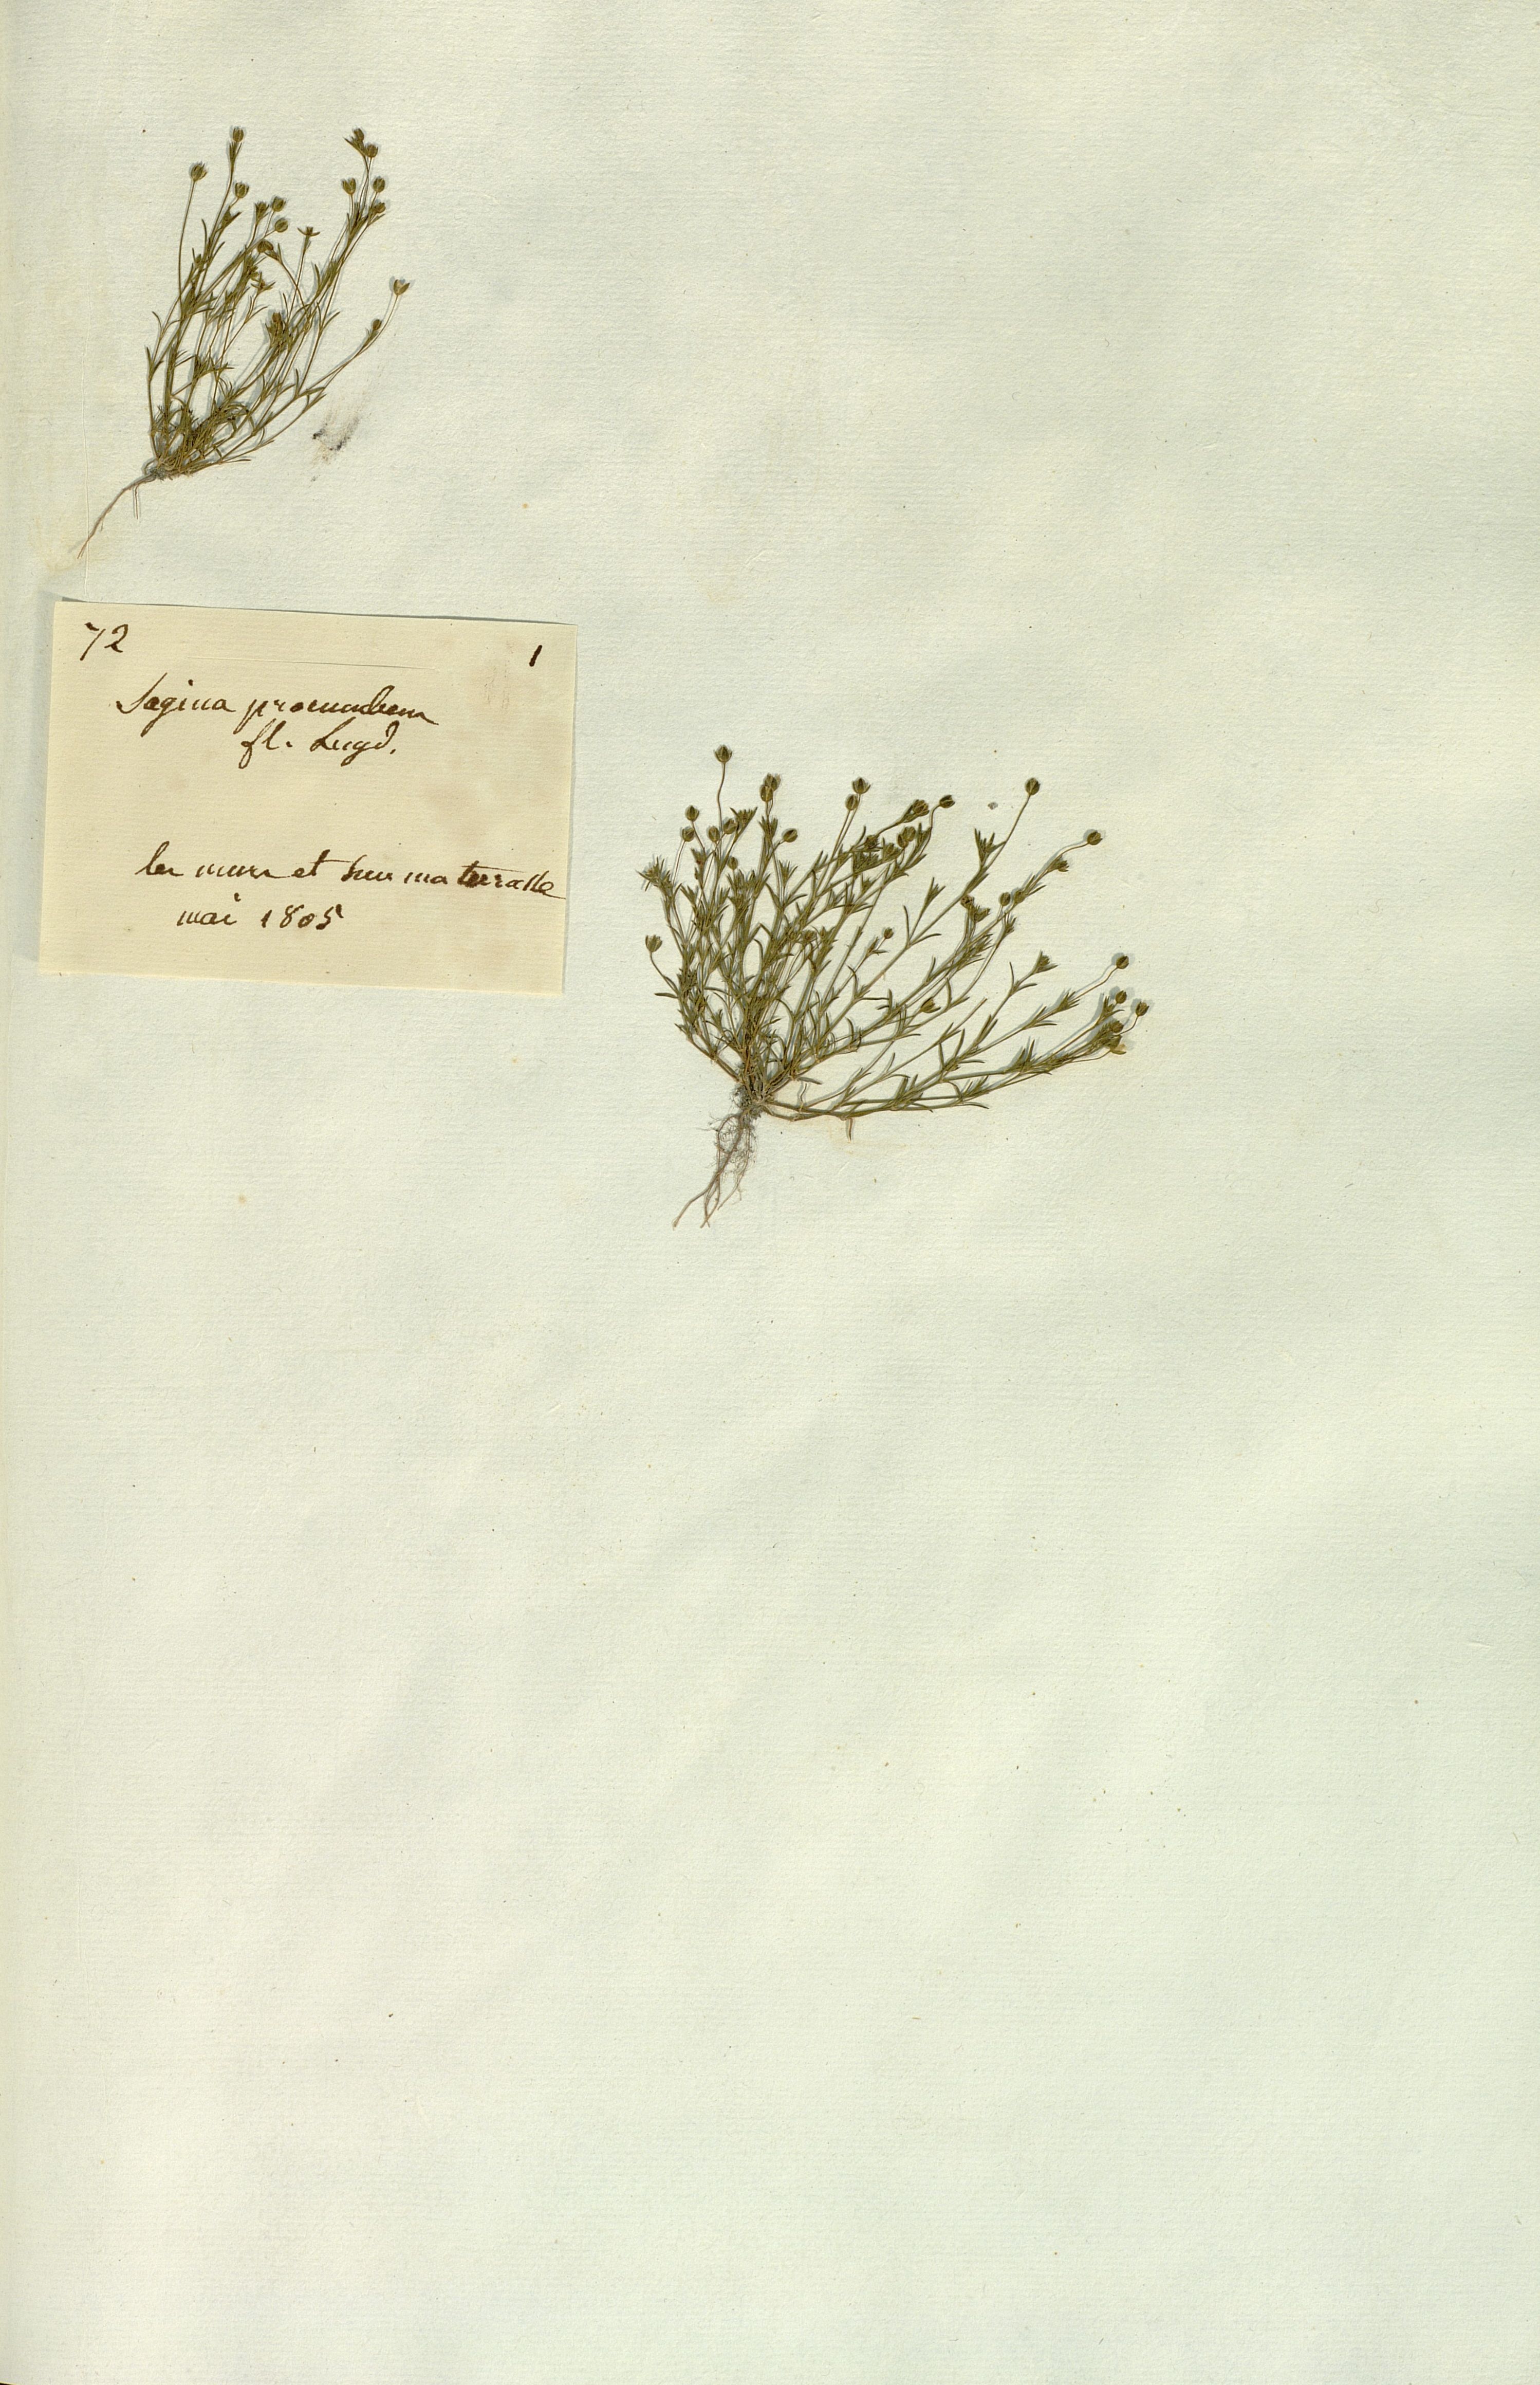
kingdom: Plantae
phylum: Tracheophyta
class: Magnoliopsida
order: Caryophyllales
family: Caryophyllaceae
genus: Sagina
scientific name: Sagina procumbens
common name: Procumbent pearlwort
